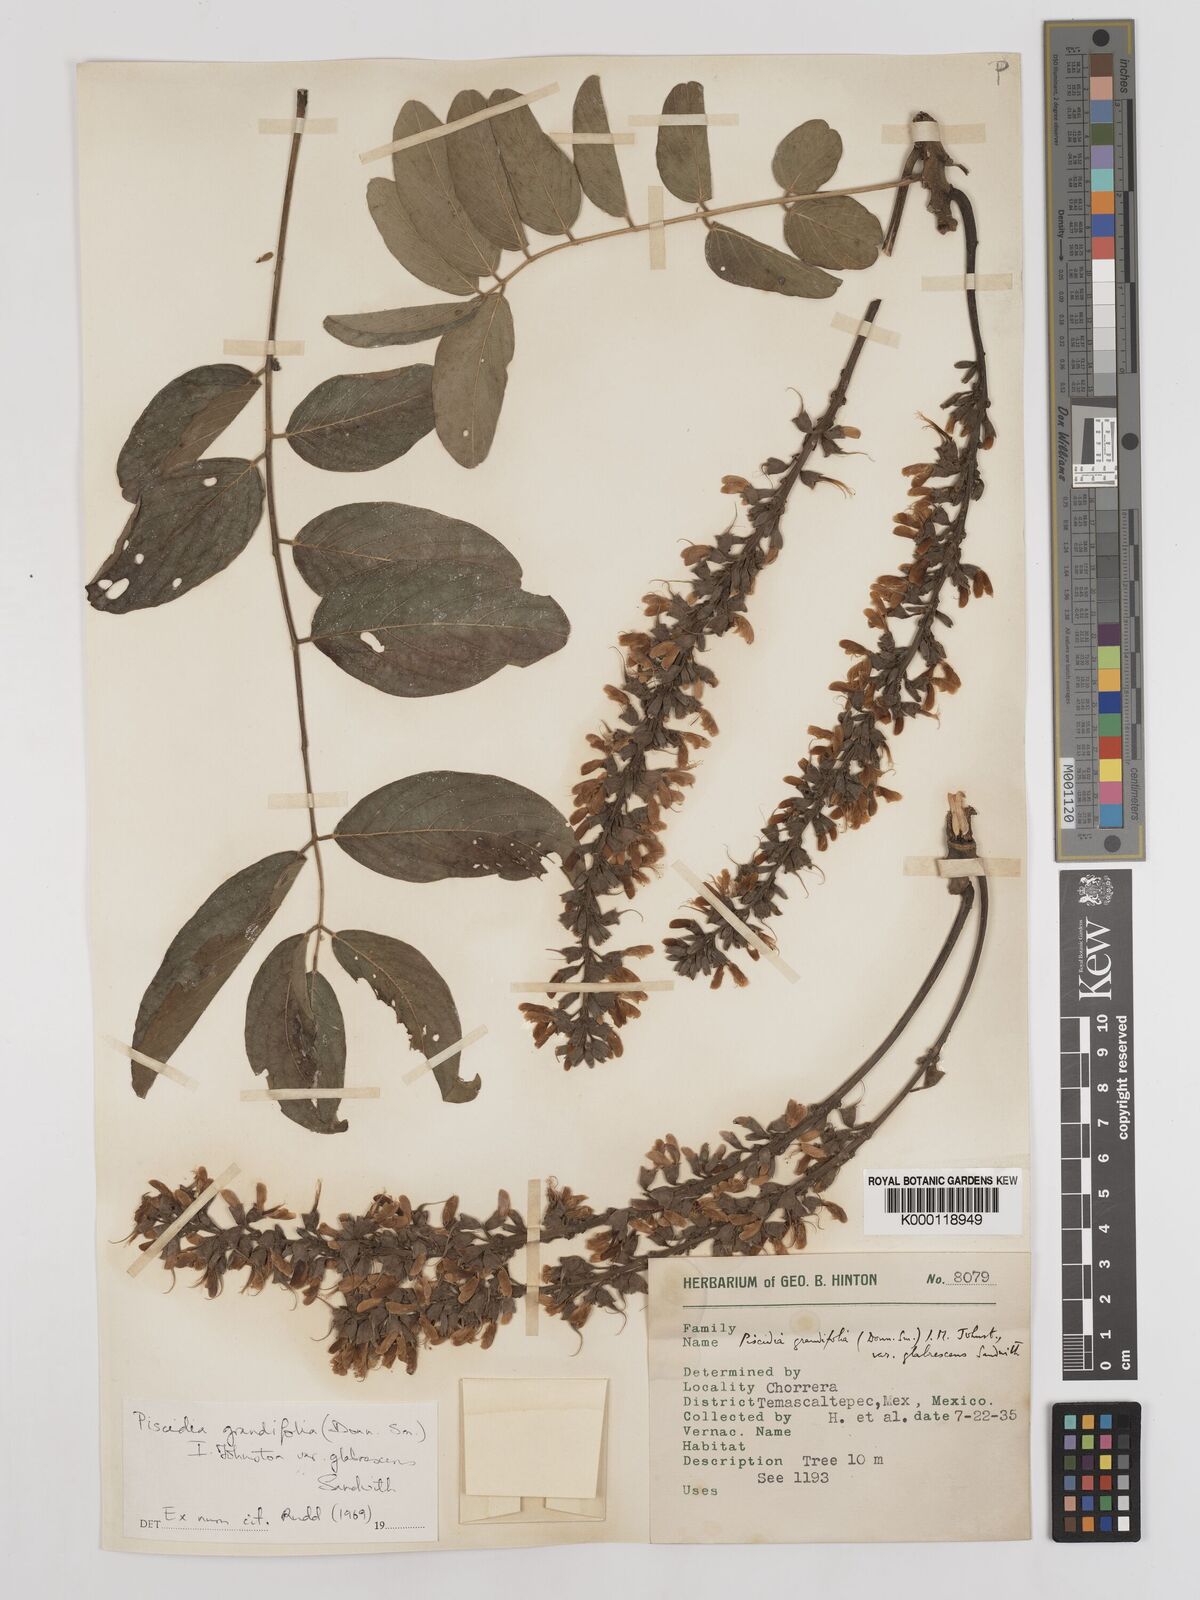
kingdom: Plantae
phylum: Tracheophyta
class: Magnoliopsida
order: Fabales
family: Fabaceae
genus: Piscidia
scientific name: Piscidia grandifolia
